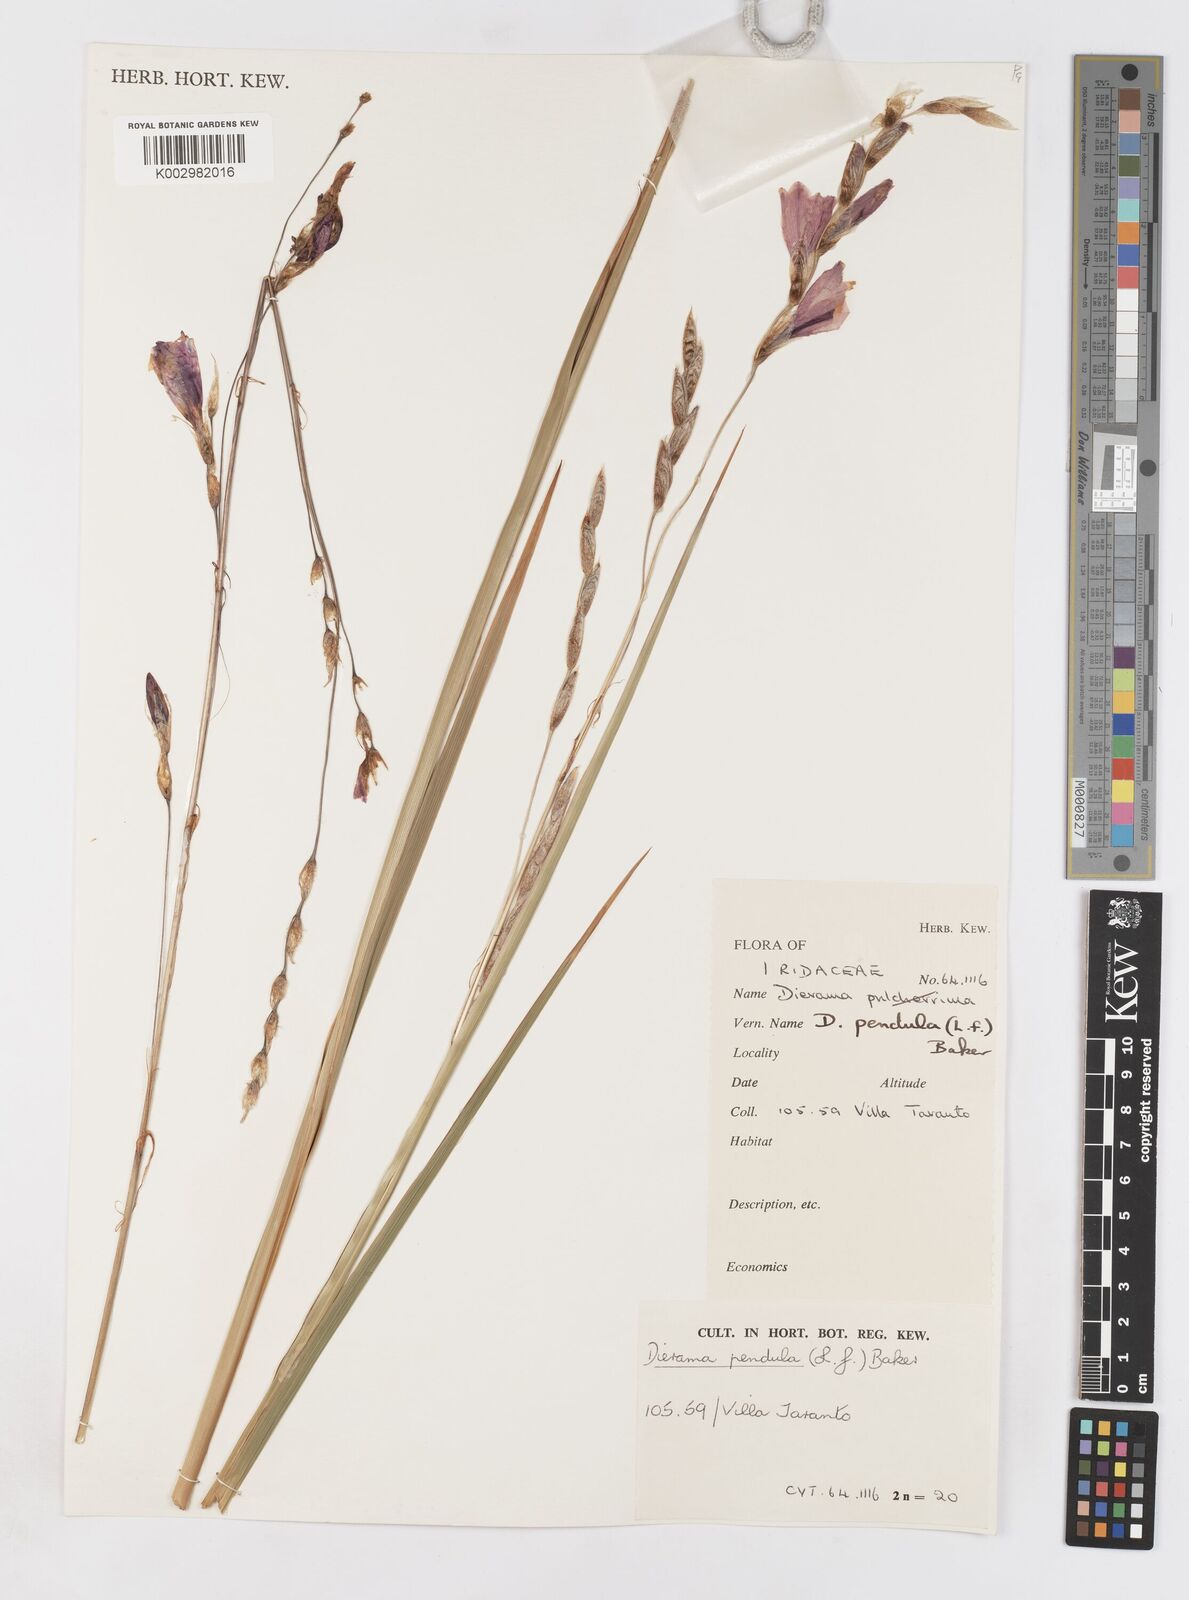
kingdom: Plantae
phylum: Tracheophyta
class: Liliopsida
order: Asparagales
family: Iridaceae
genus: Dierama
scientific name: Dierama pendulum
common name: Grassy-bell
